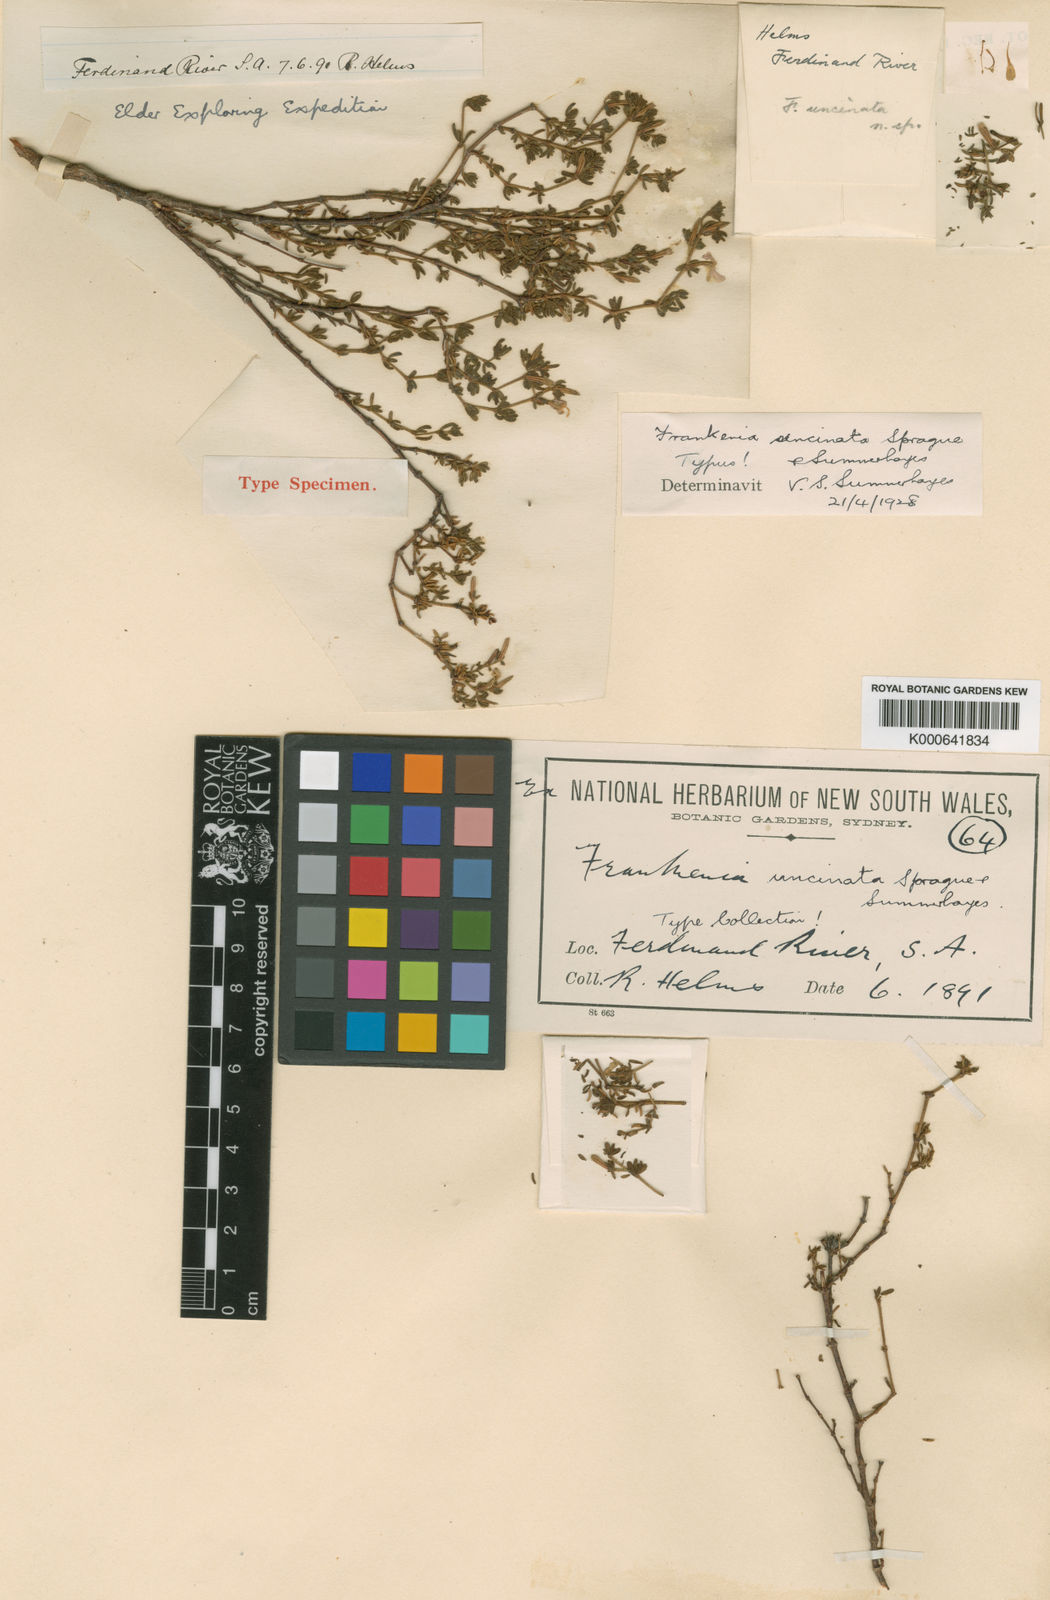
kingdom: Plantae
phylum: Tracheophyta
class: Magnoliopsida
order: Caryophyllales
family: Frankeniaceae
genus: Frankenia
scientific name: Frankenia uncinata
